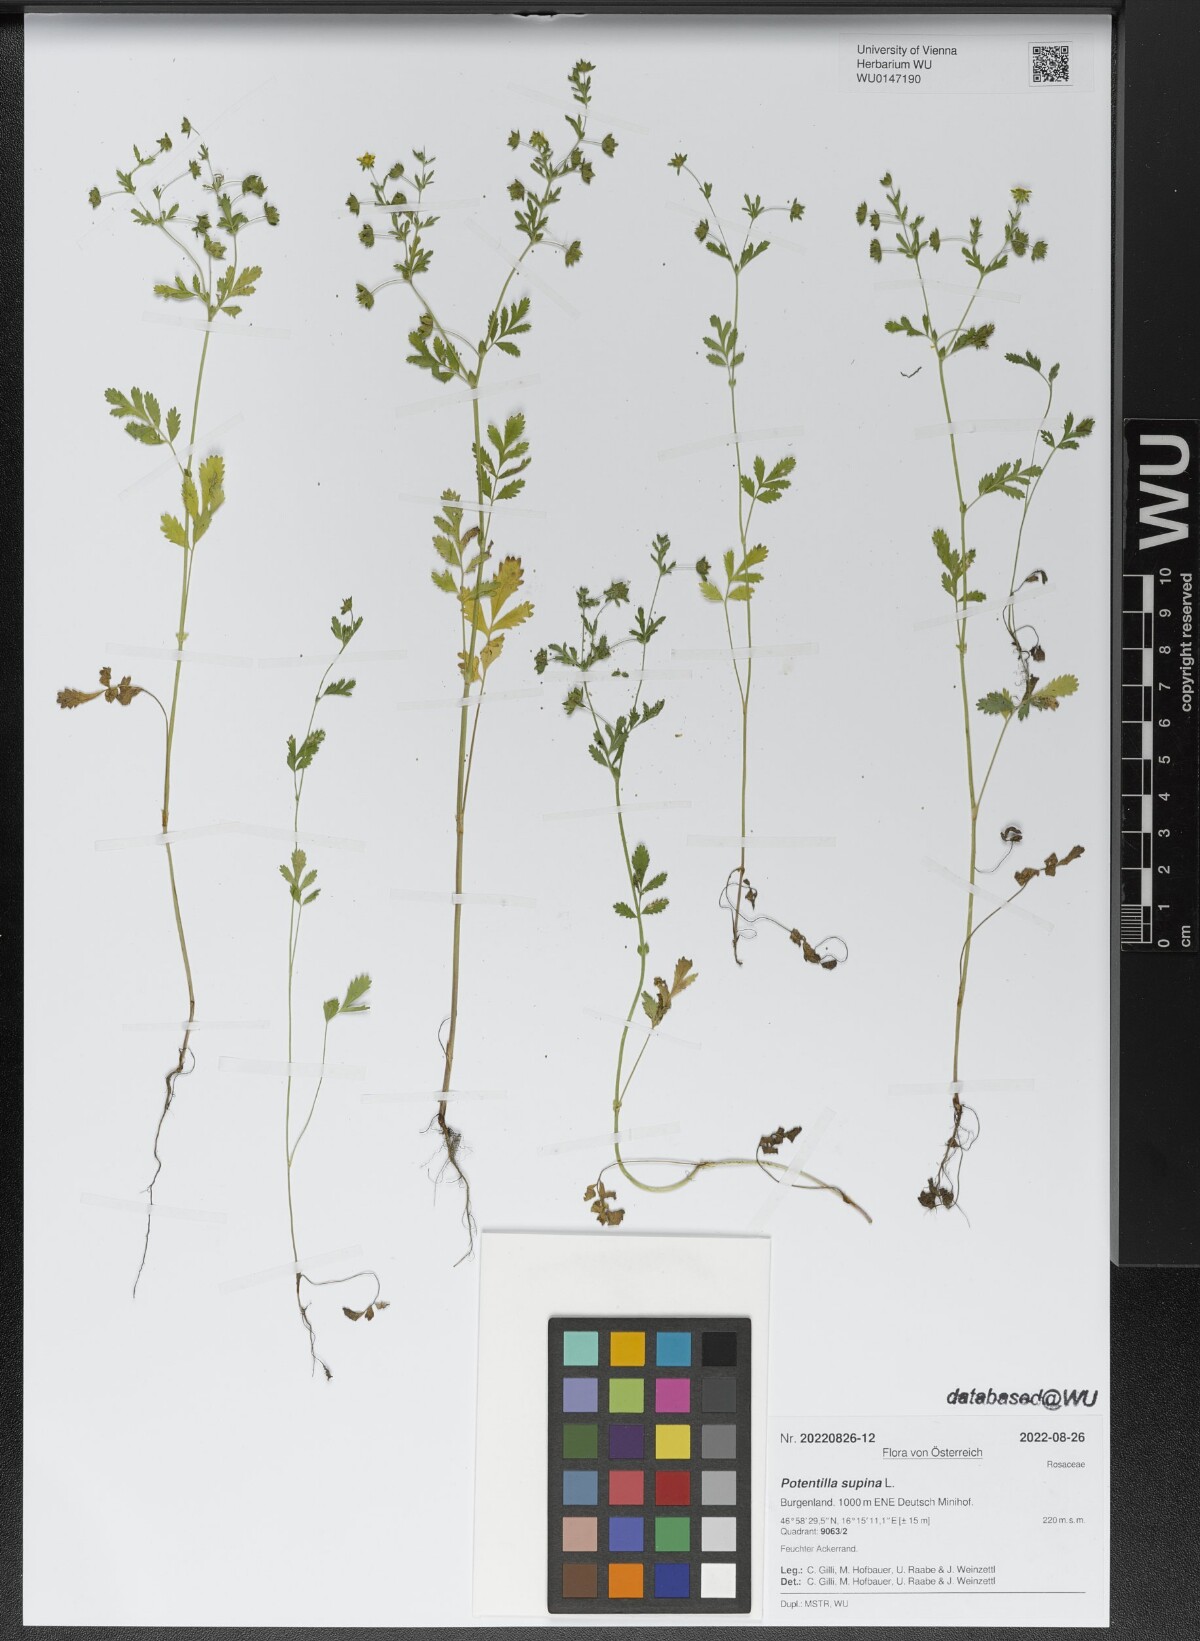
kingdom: Plantae
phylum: Tracheophyta
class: Magnoliopsida
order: Rosales
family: Rosaceae
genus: Potentilla
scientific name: Potentilla supina
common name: Prostrate cinquefoil
